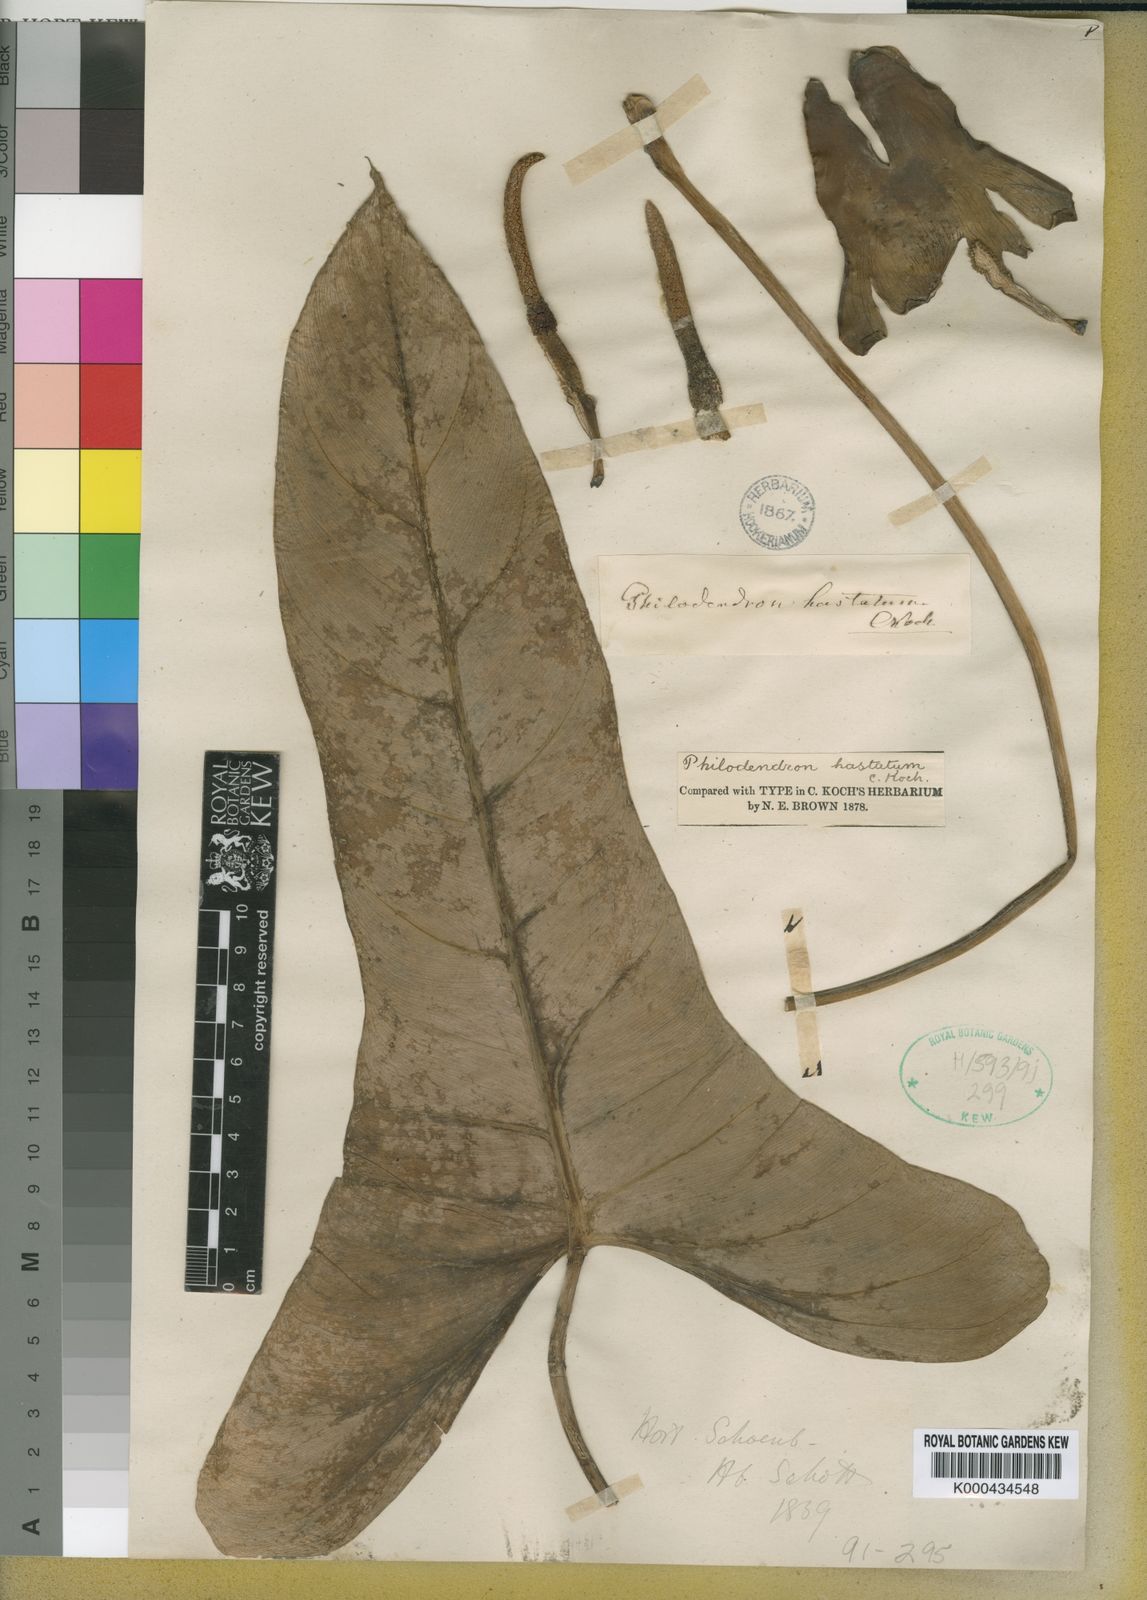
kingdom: Plantae
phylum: Tracheophyta
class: Liliopsida
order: Alismatales
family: Araceae
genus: Philodendron
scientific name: Philodendron hastatum
